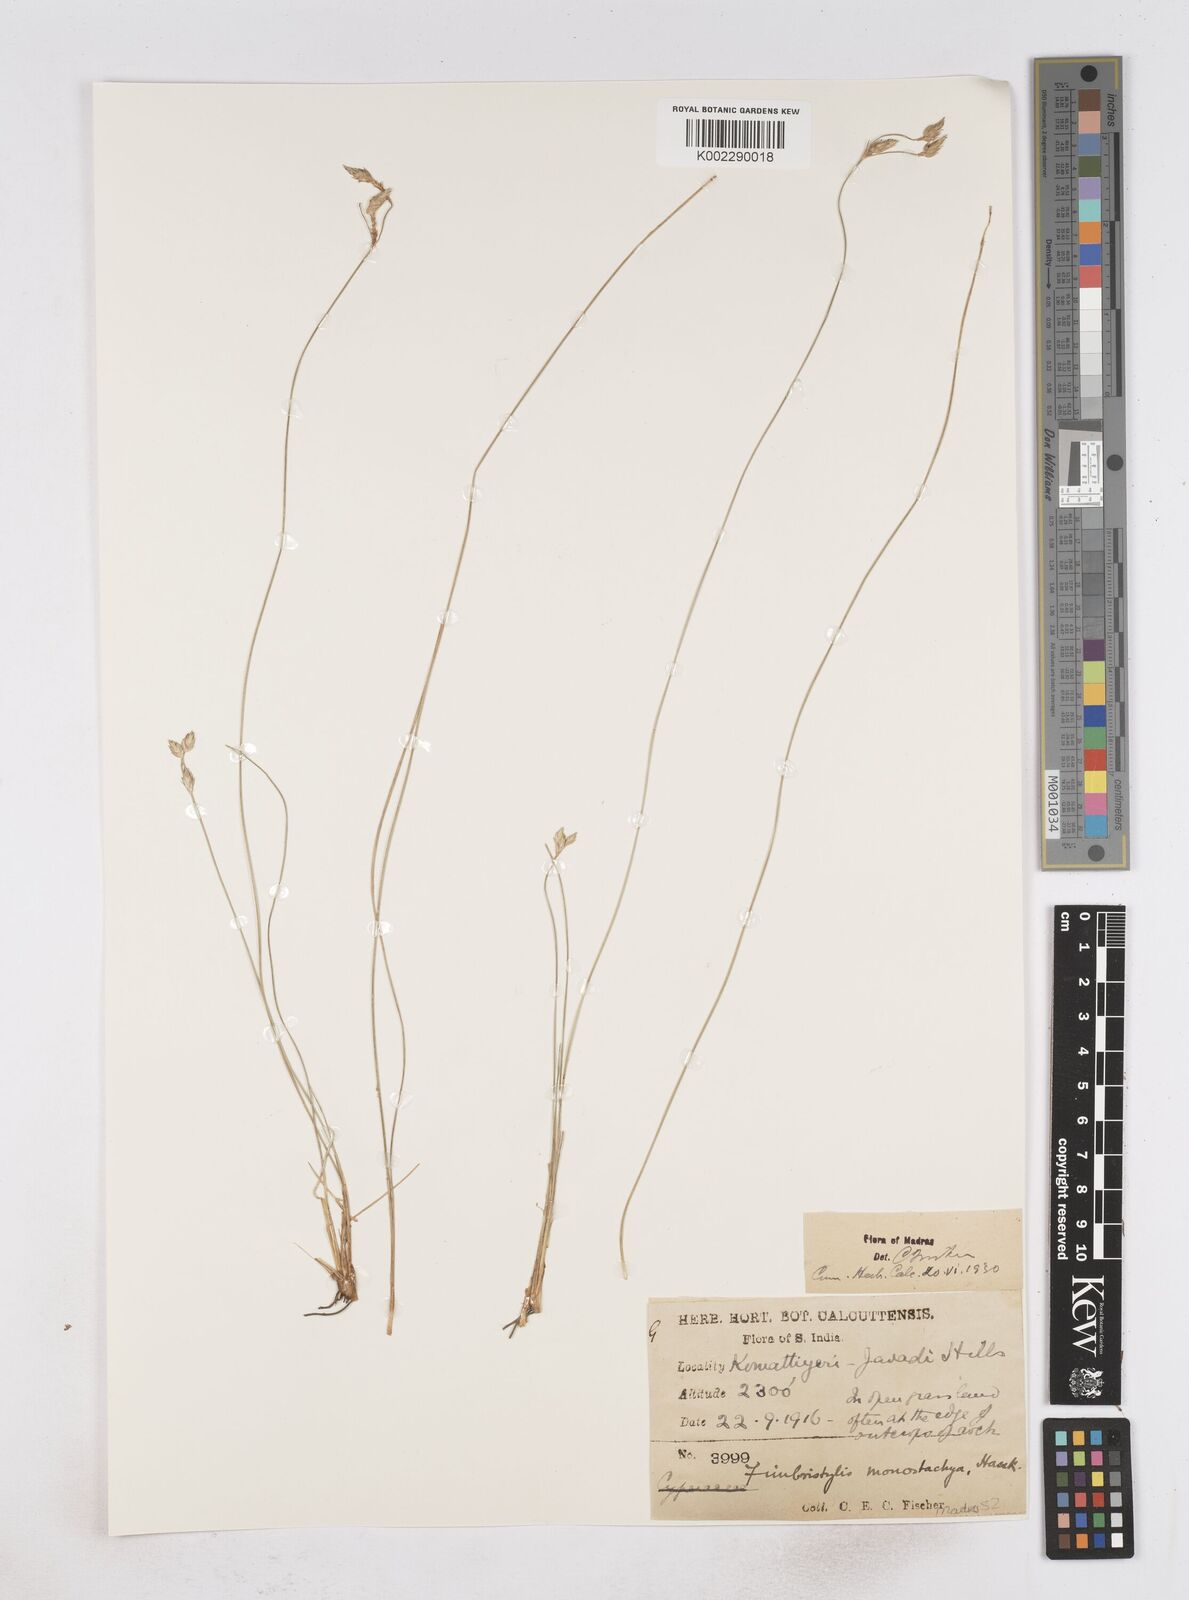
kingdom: Plantae
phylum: Tracheophyta
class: Liliopsida
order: Poales
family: Cyperaceae
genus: Abildgaardia
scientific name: Abildgaardia ovata
